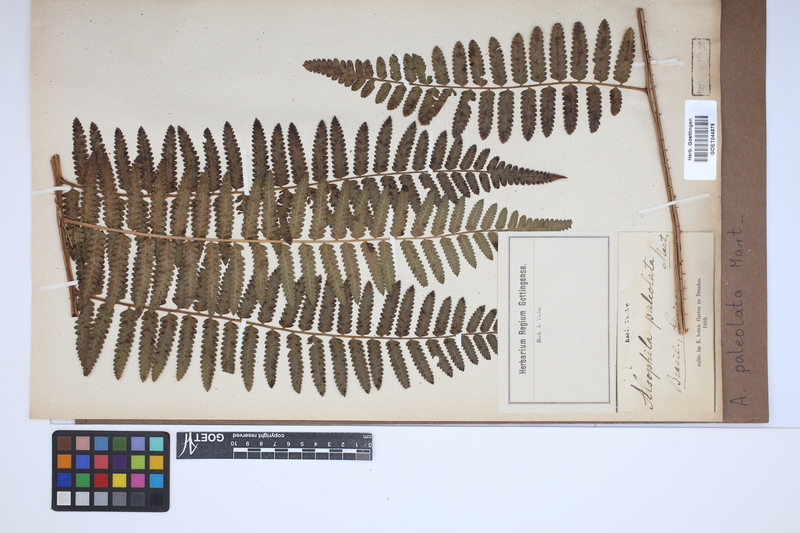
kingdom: Plantae
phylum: Tracheophyta
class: Polypodiopsida
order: Cyatheales
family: Cyatheaceae
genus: Cyathea
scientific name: Cyathea phalerata
